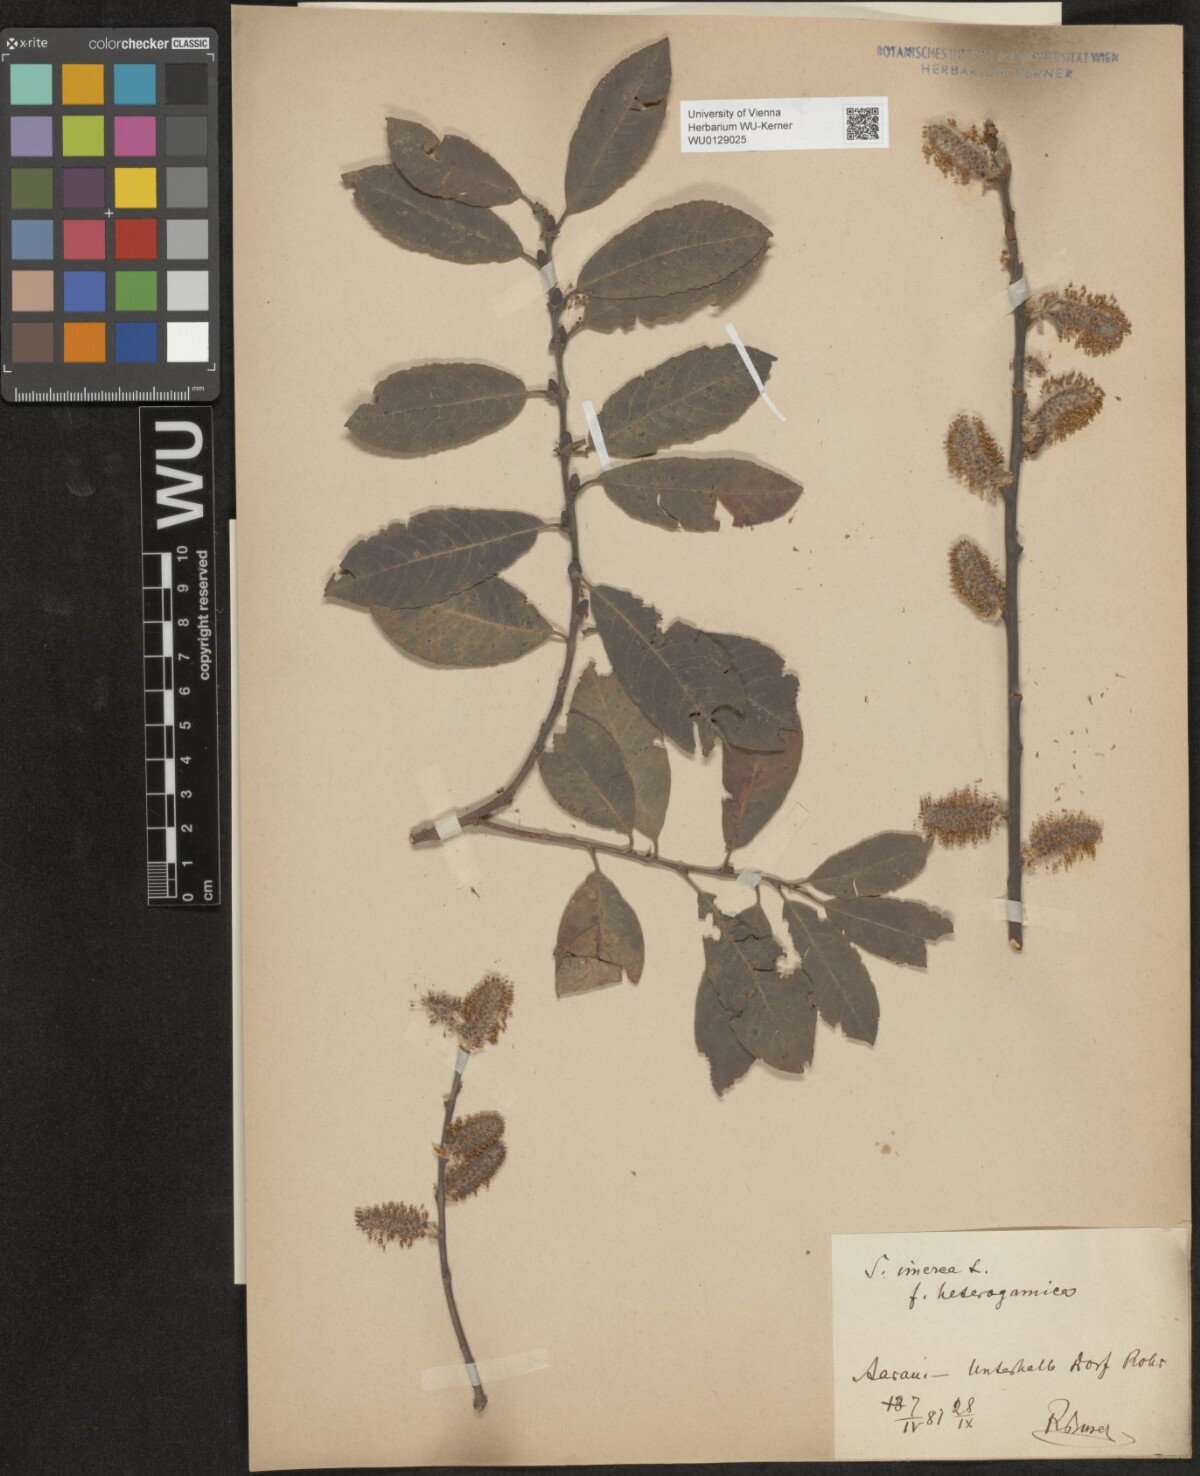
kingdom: Plantae
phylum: Tracheophyta
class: Magnoliopsida
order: Malpighiales
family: Salicaceae
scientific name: Salicaceae
